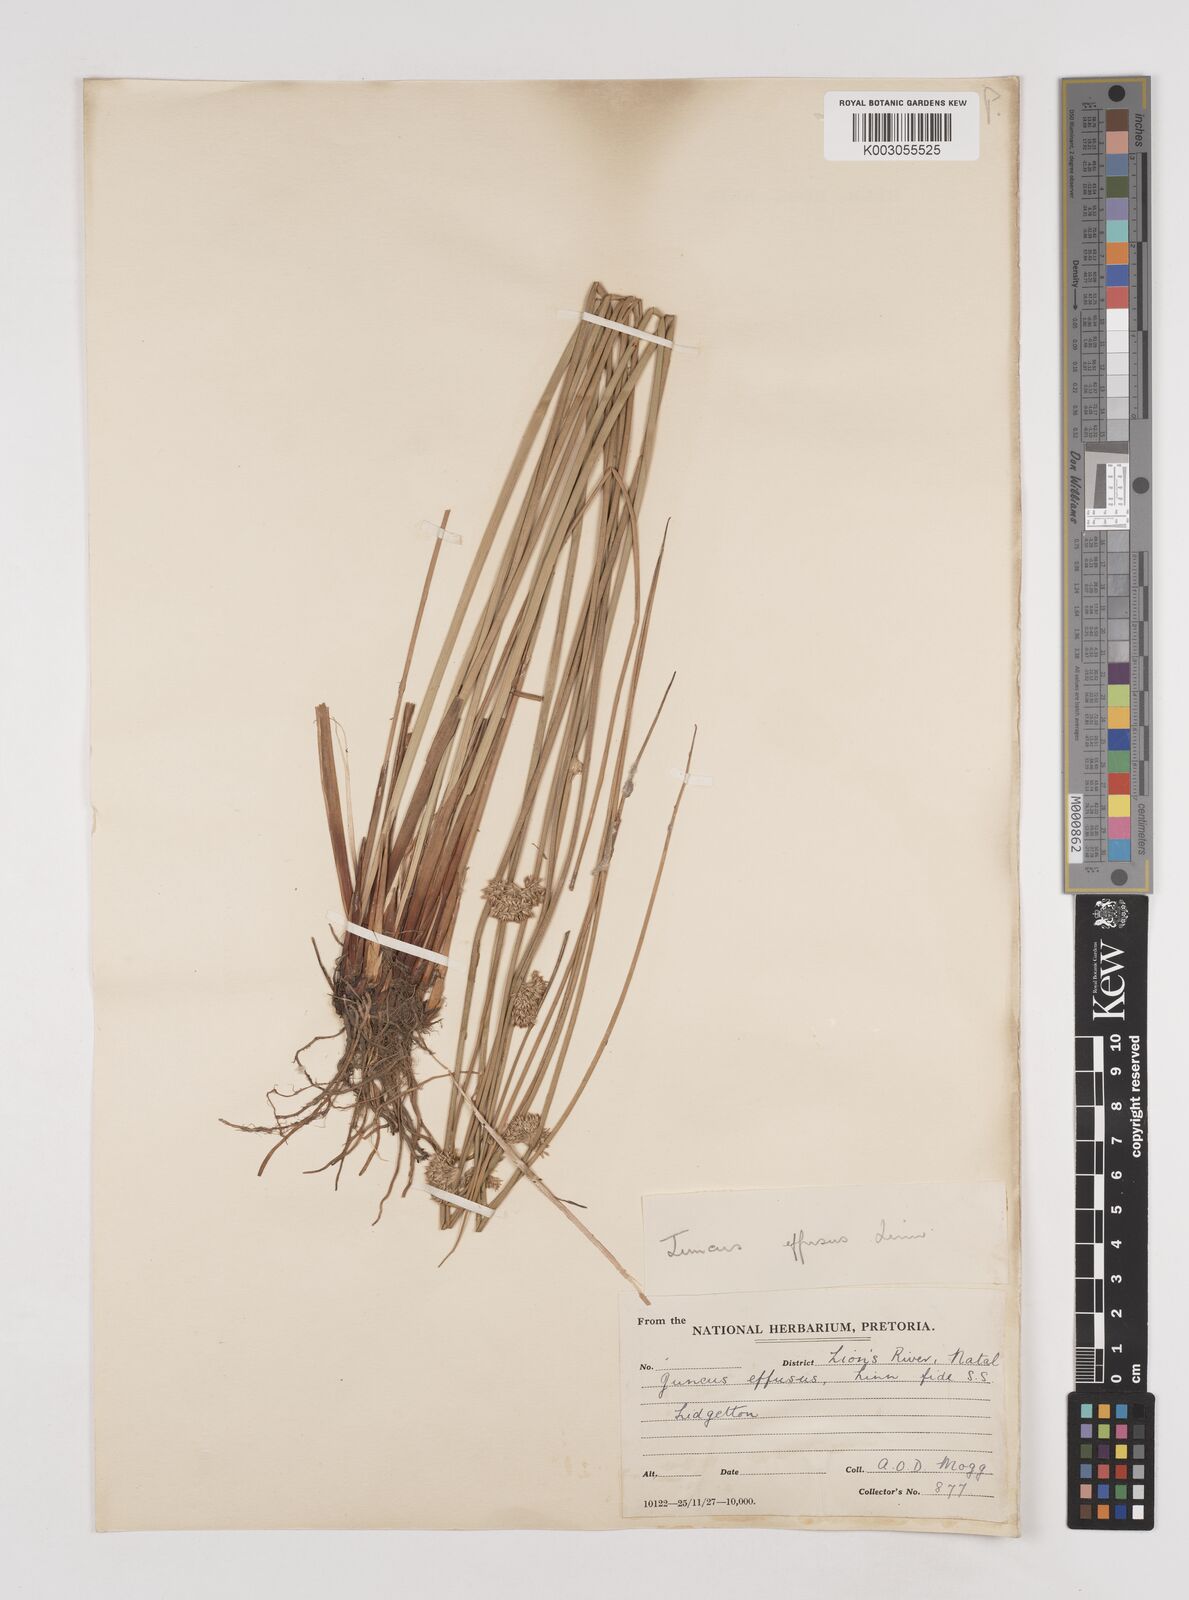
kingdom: Plantae
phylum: Tracheophyta
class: Liliopsida
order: Poales
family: Juncaceae
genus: Juncus
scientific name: Juncus effusus
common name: Soft rush
